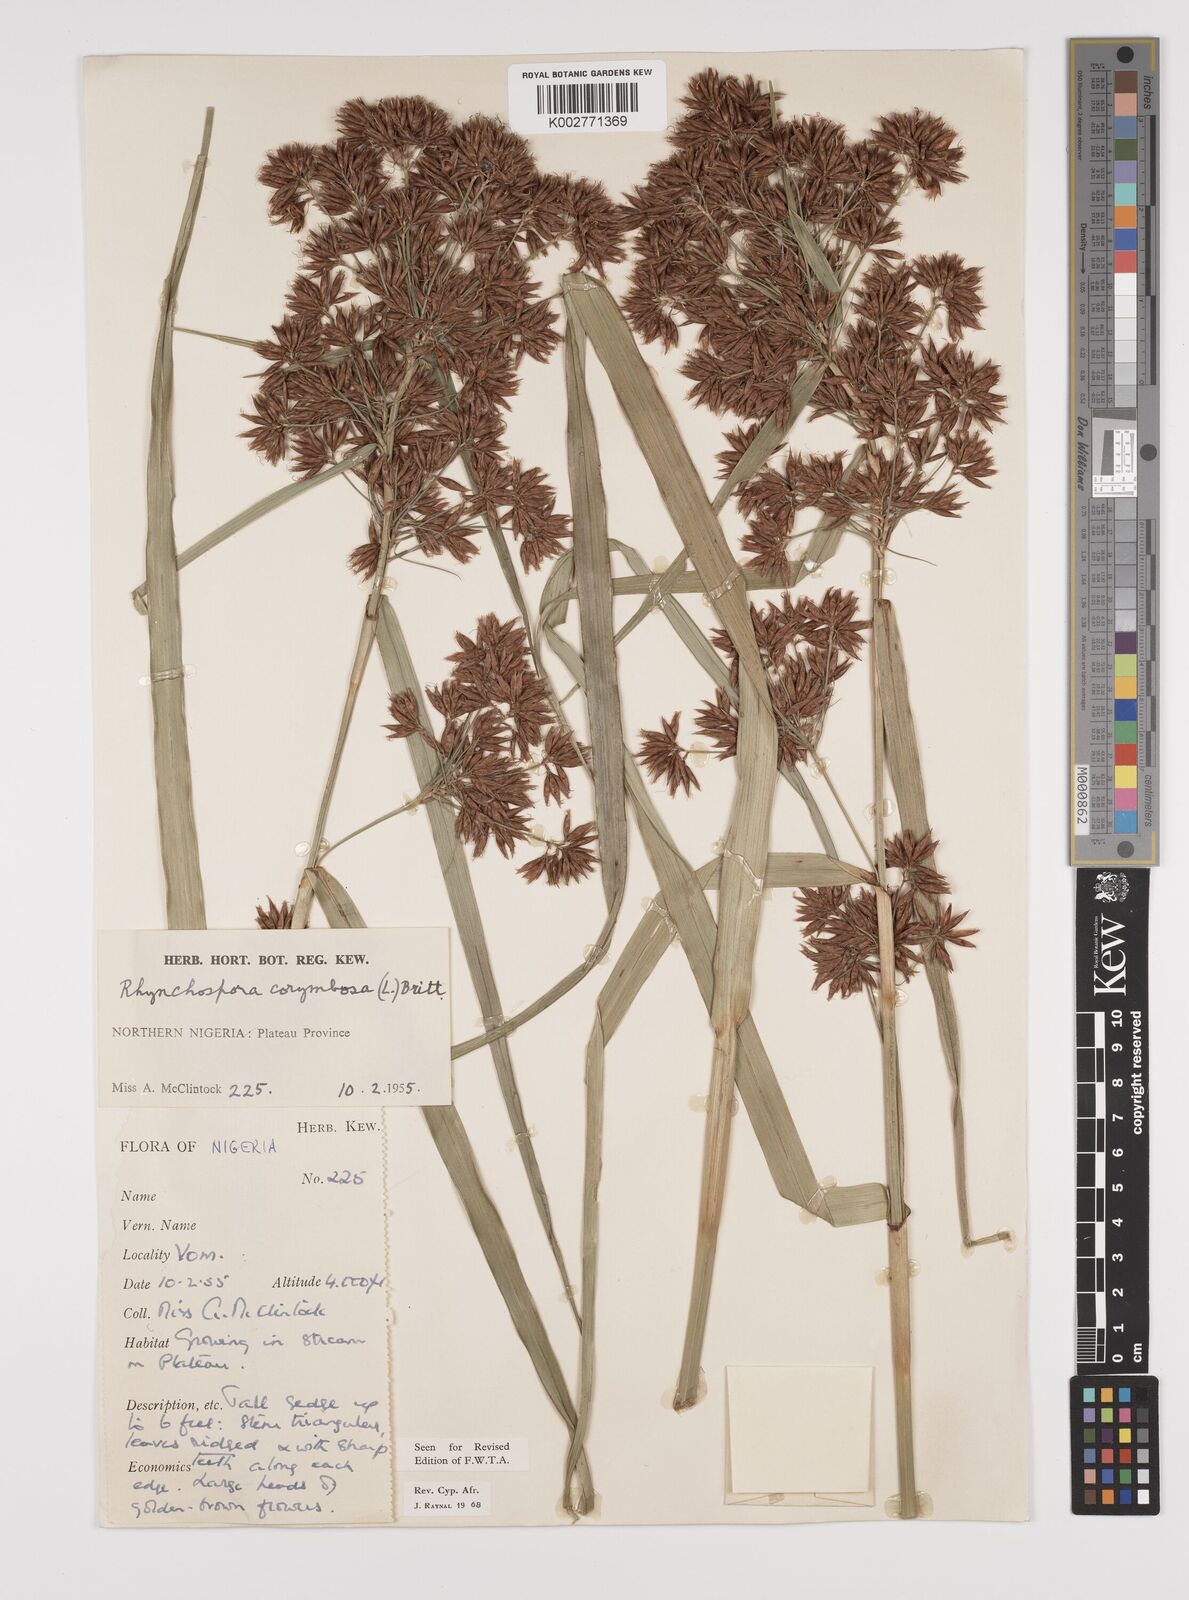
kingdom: Plantae
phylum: Tracheophyta
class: Liliopsida
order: Poales
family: Cyperaceae
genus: Rhynchospora
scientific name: Rhynchospora corymbosa
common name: Golden beak sedge
